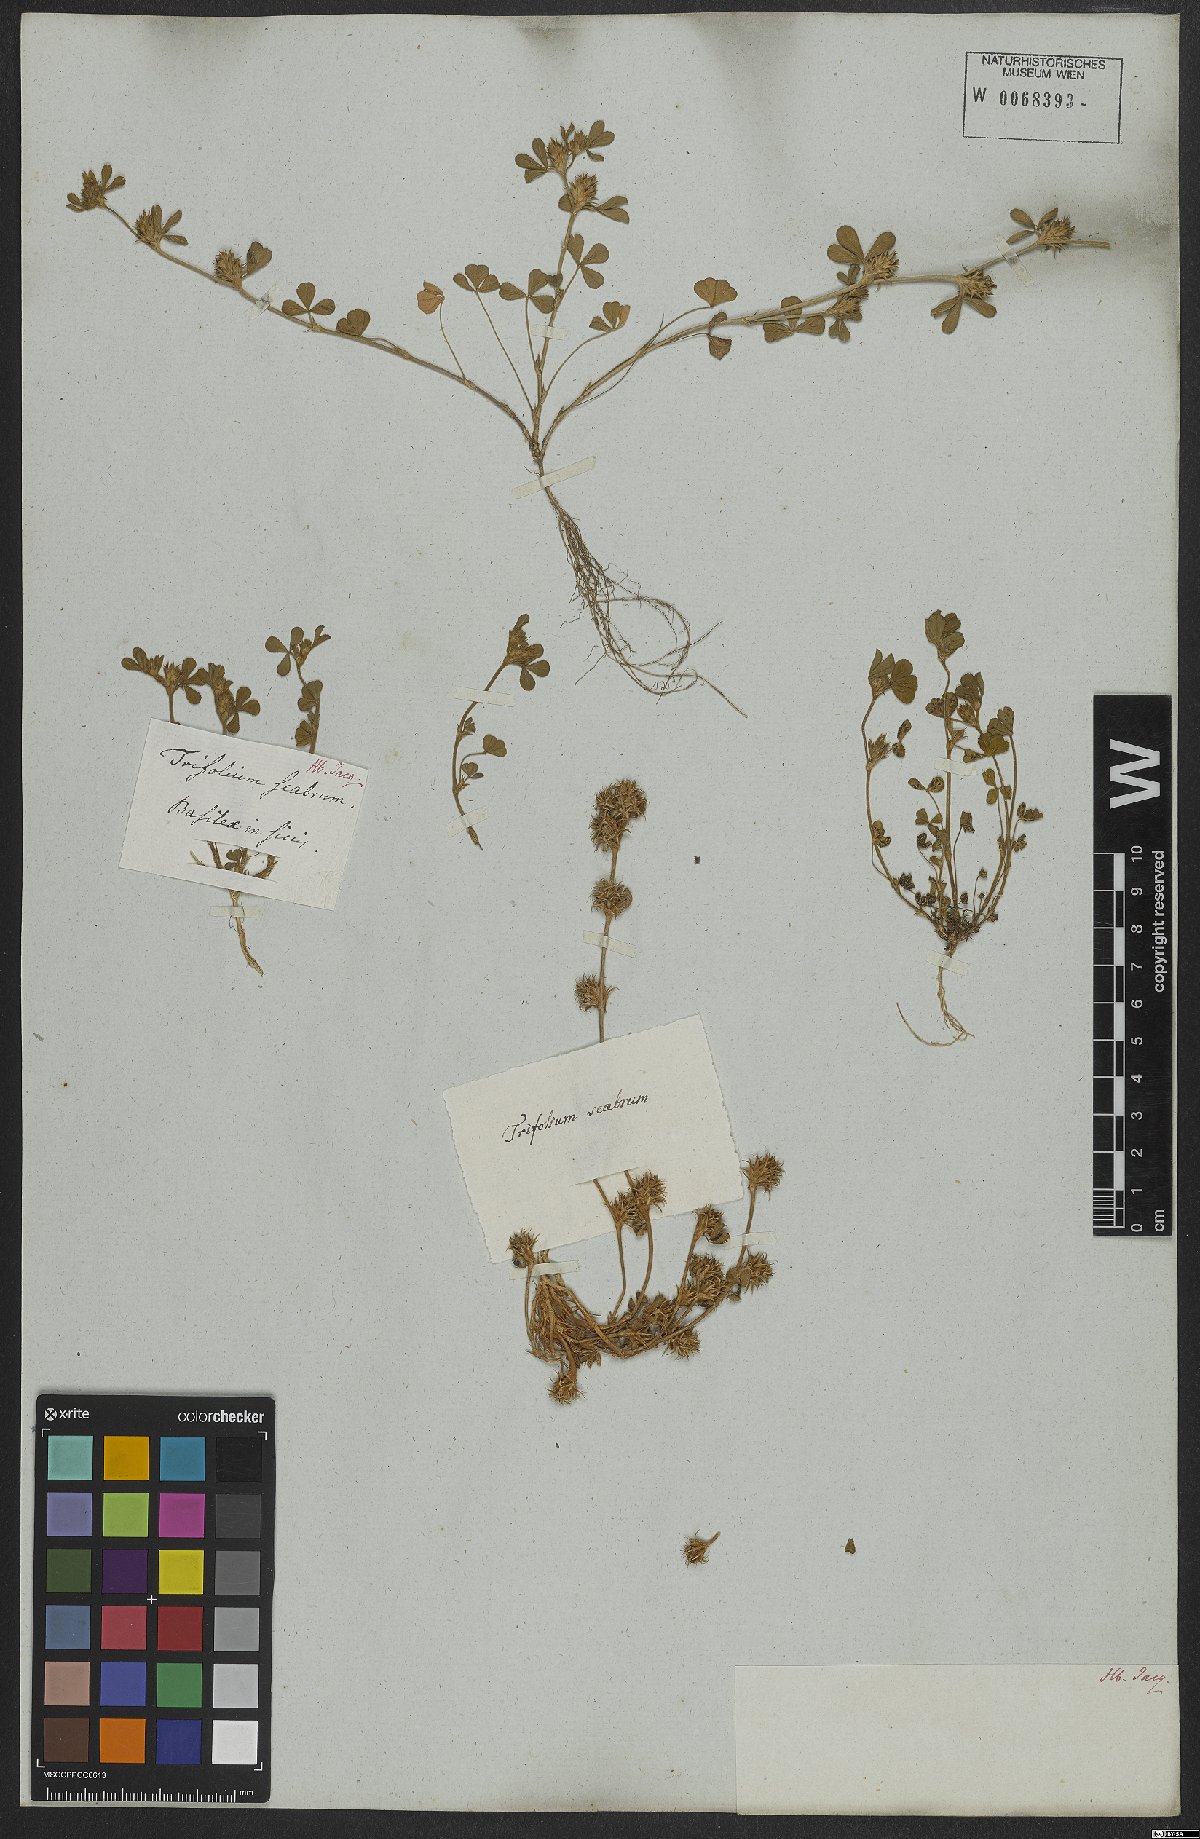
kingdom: Plantae
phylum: Tracheophyta
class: Magnoliopsida
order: Fabales
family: Fabaceae
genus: Trifolium
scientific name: Trifolium scabrum
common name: Rough clover
